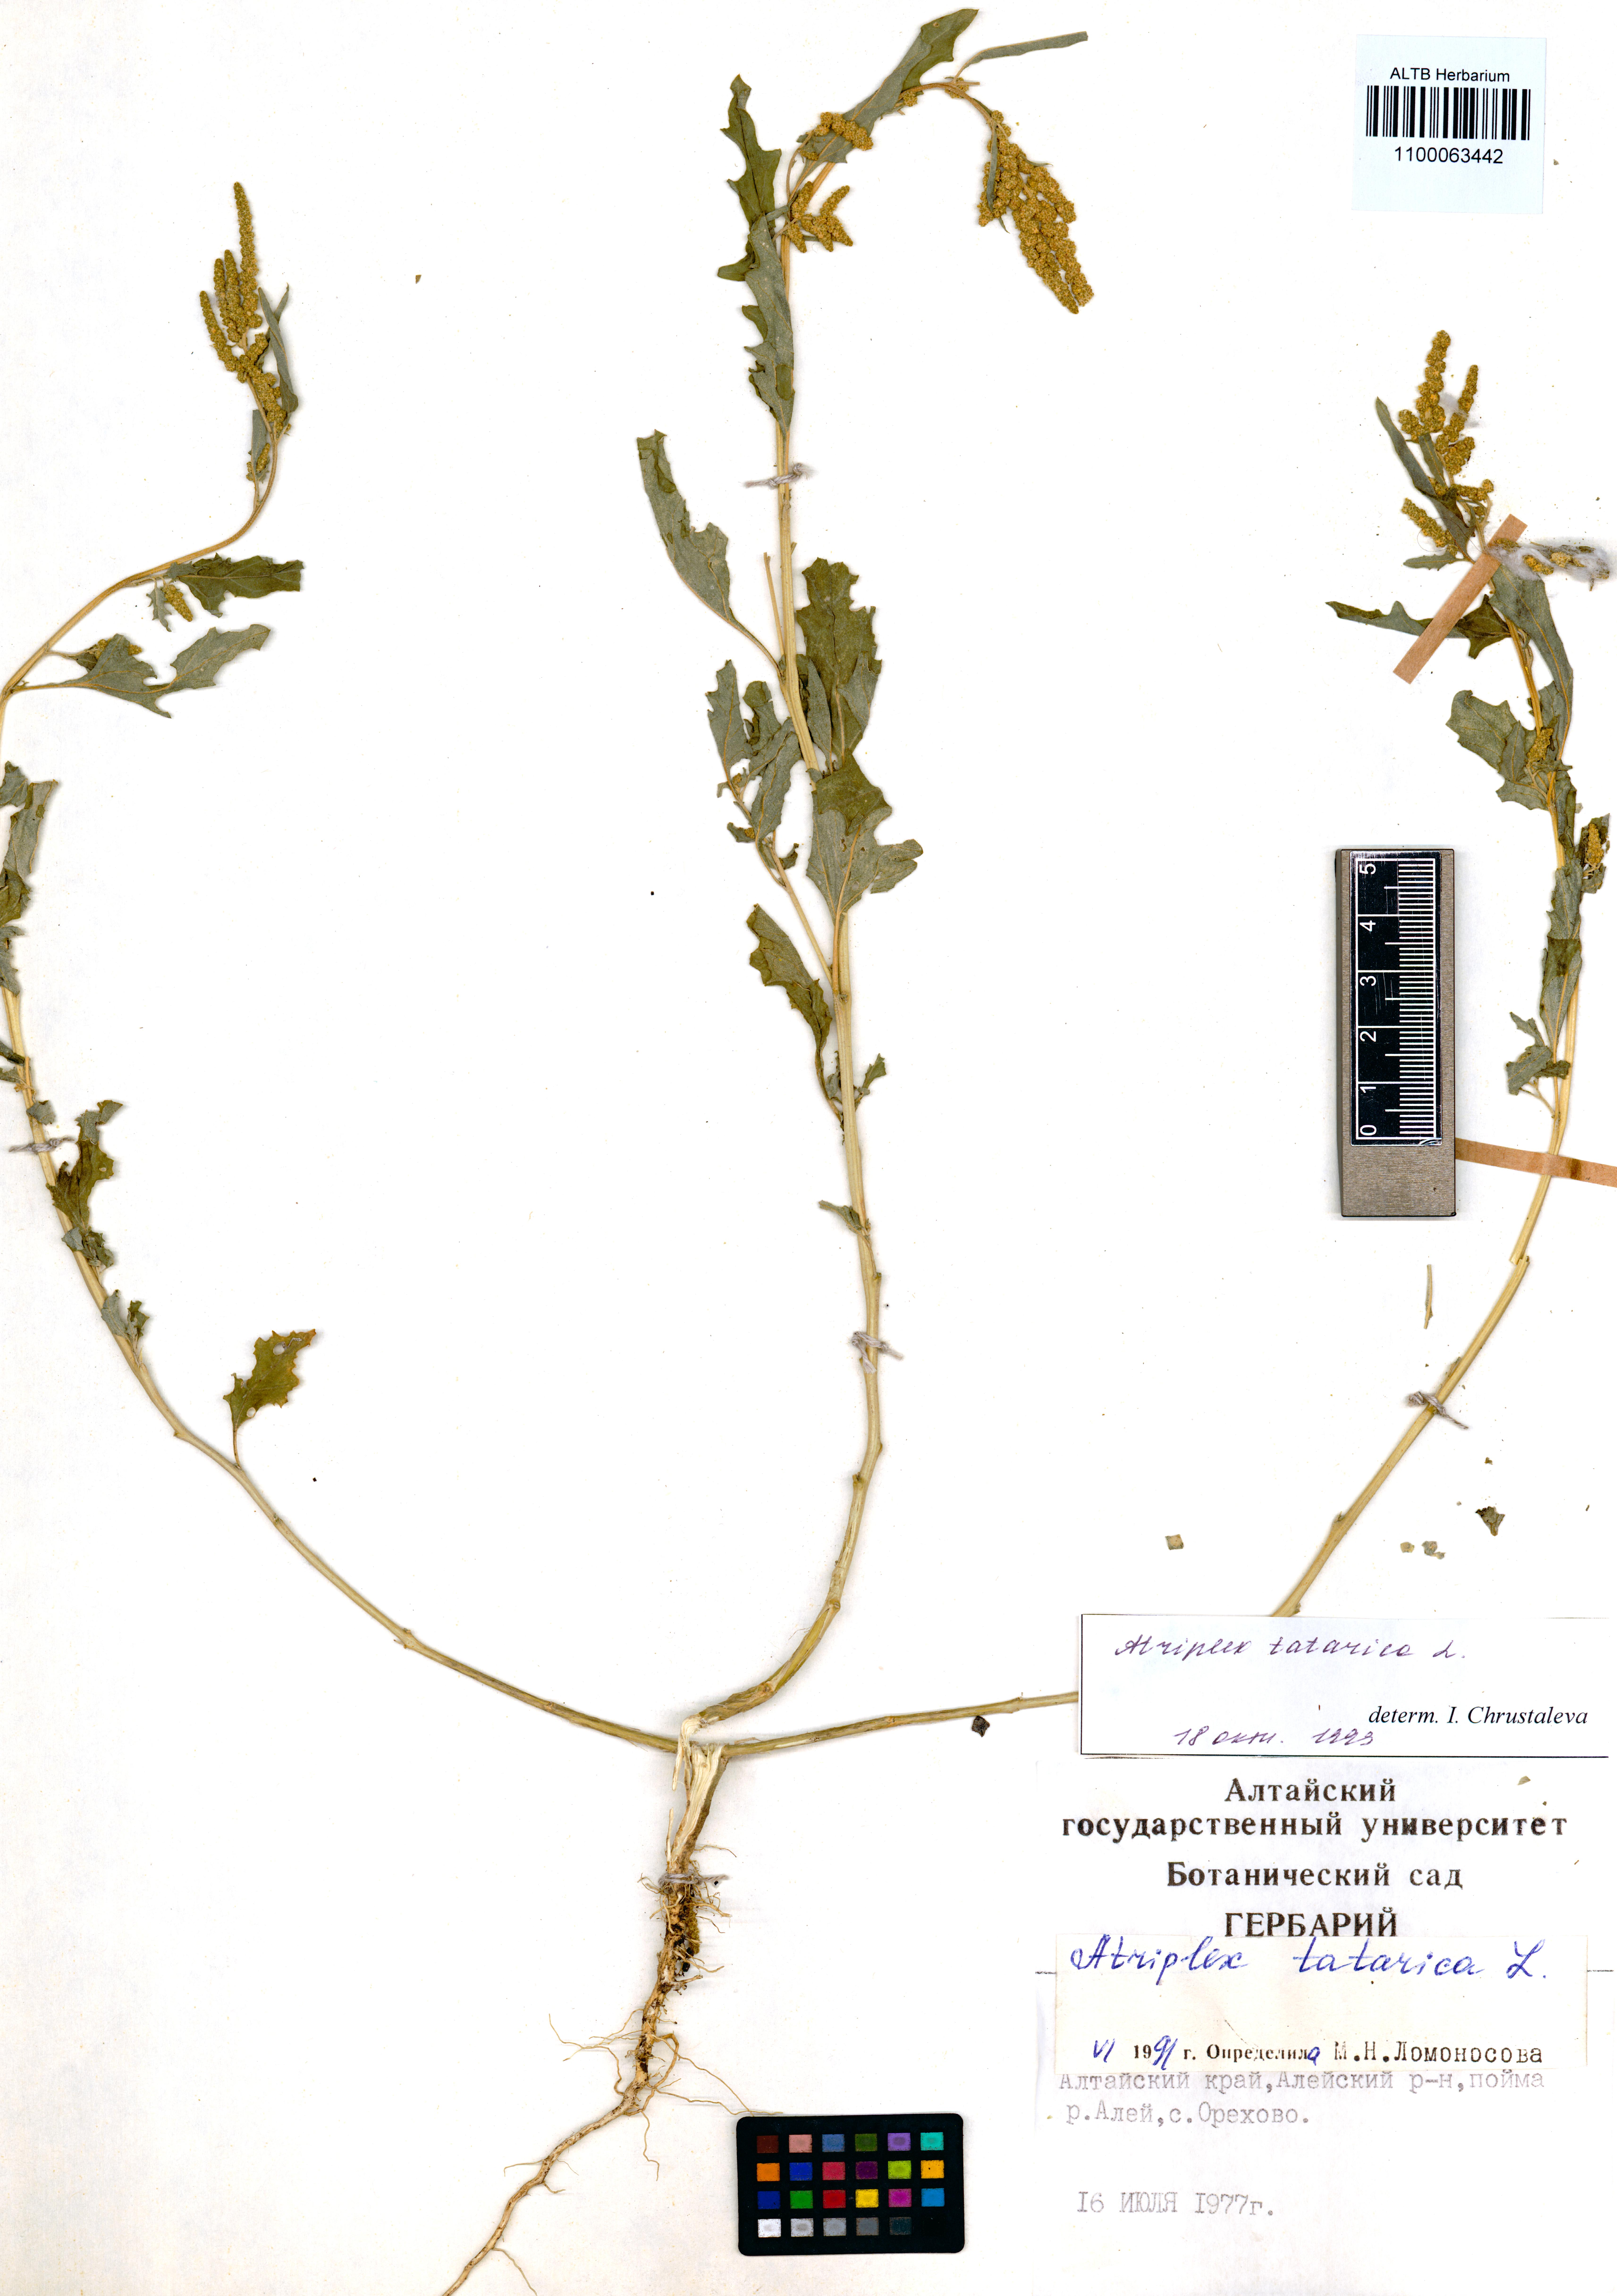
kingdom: Plantae
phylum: Tracheophyta
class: Magnoliopsida
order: Caryophyllales
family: Amaranthaceae
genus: Atriplex
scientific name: Atriplex tatarica
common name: Tatarian orache
